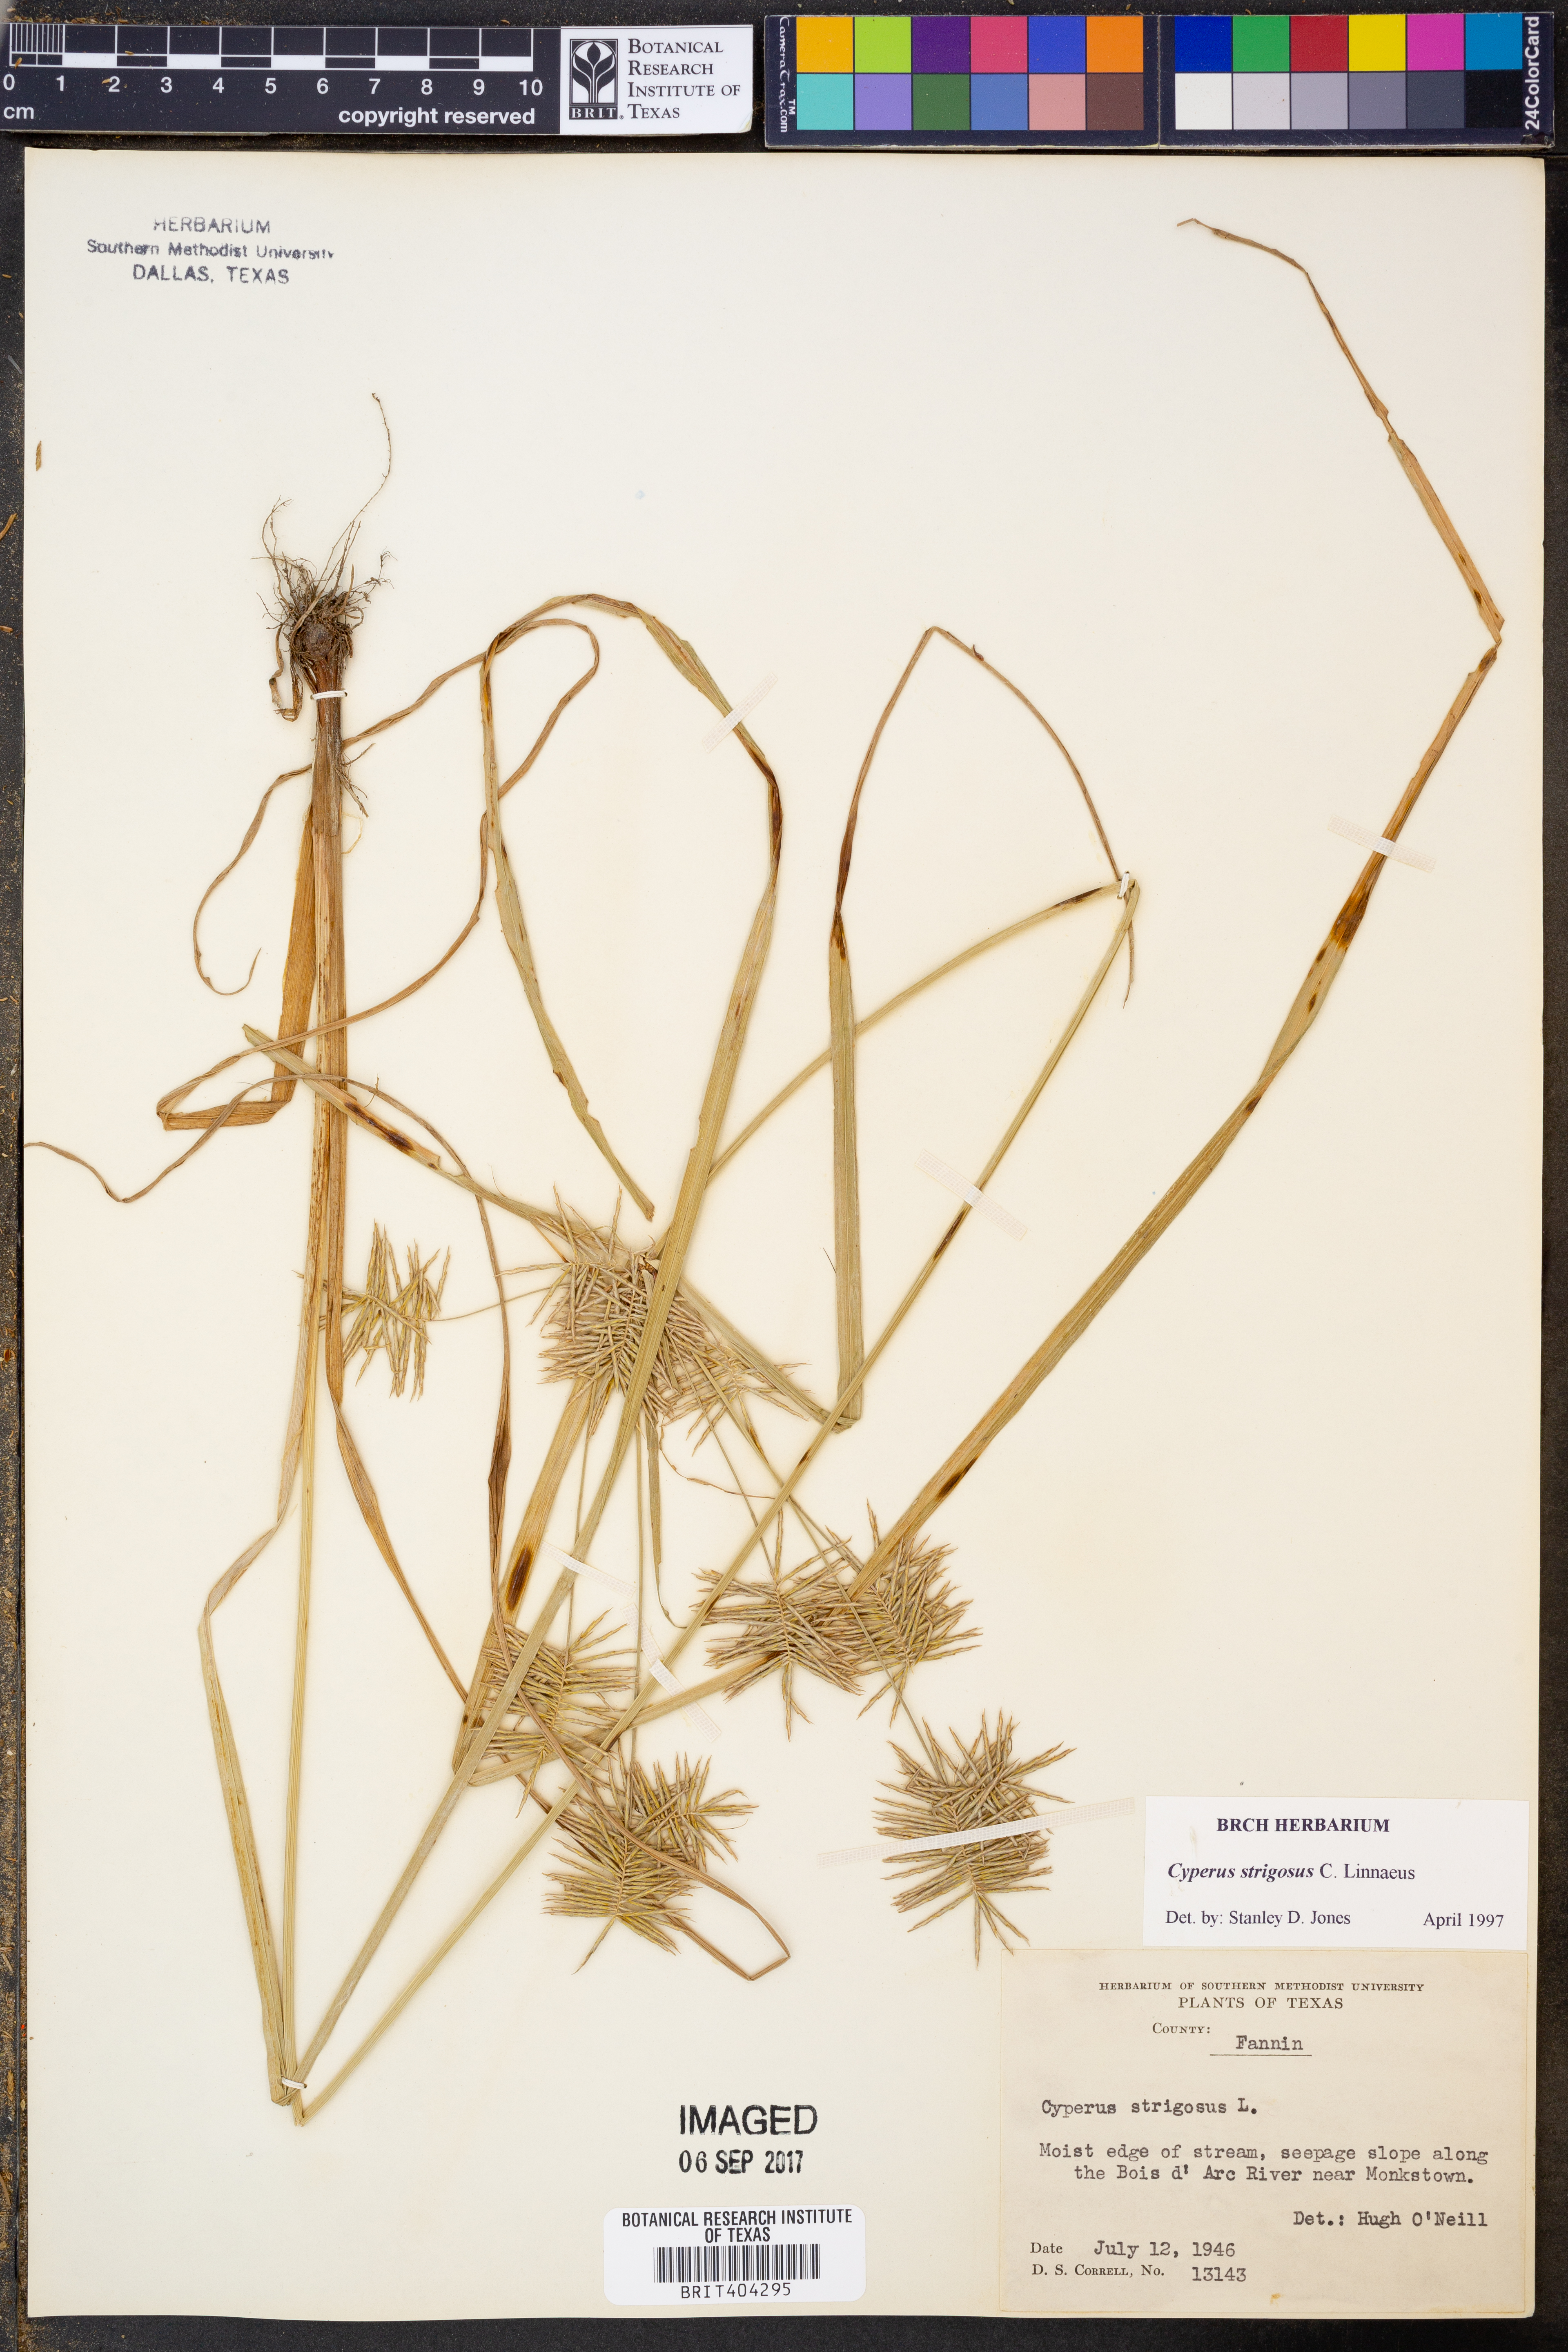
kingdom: Plantae
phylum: Tracheophyta
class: Liliopsida
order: Poales
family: Cyperaceae
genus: Cyperus
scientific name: Cyperus strigosus
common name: False nutsedge
